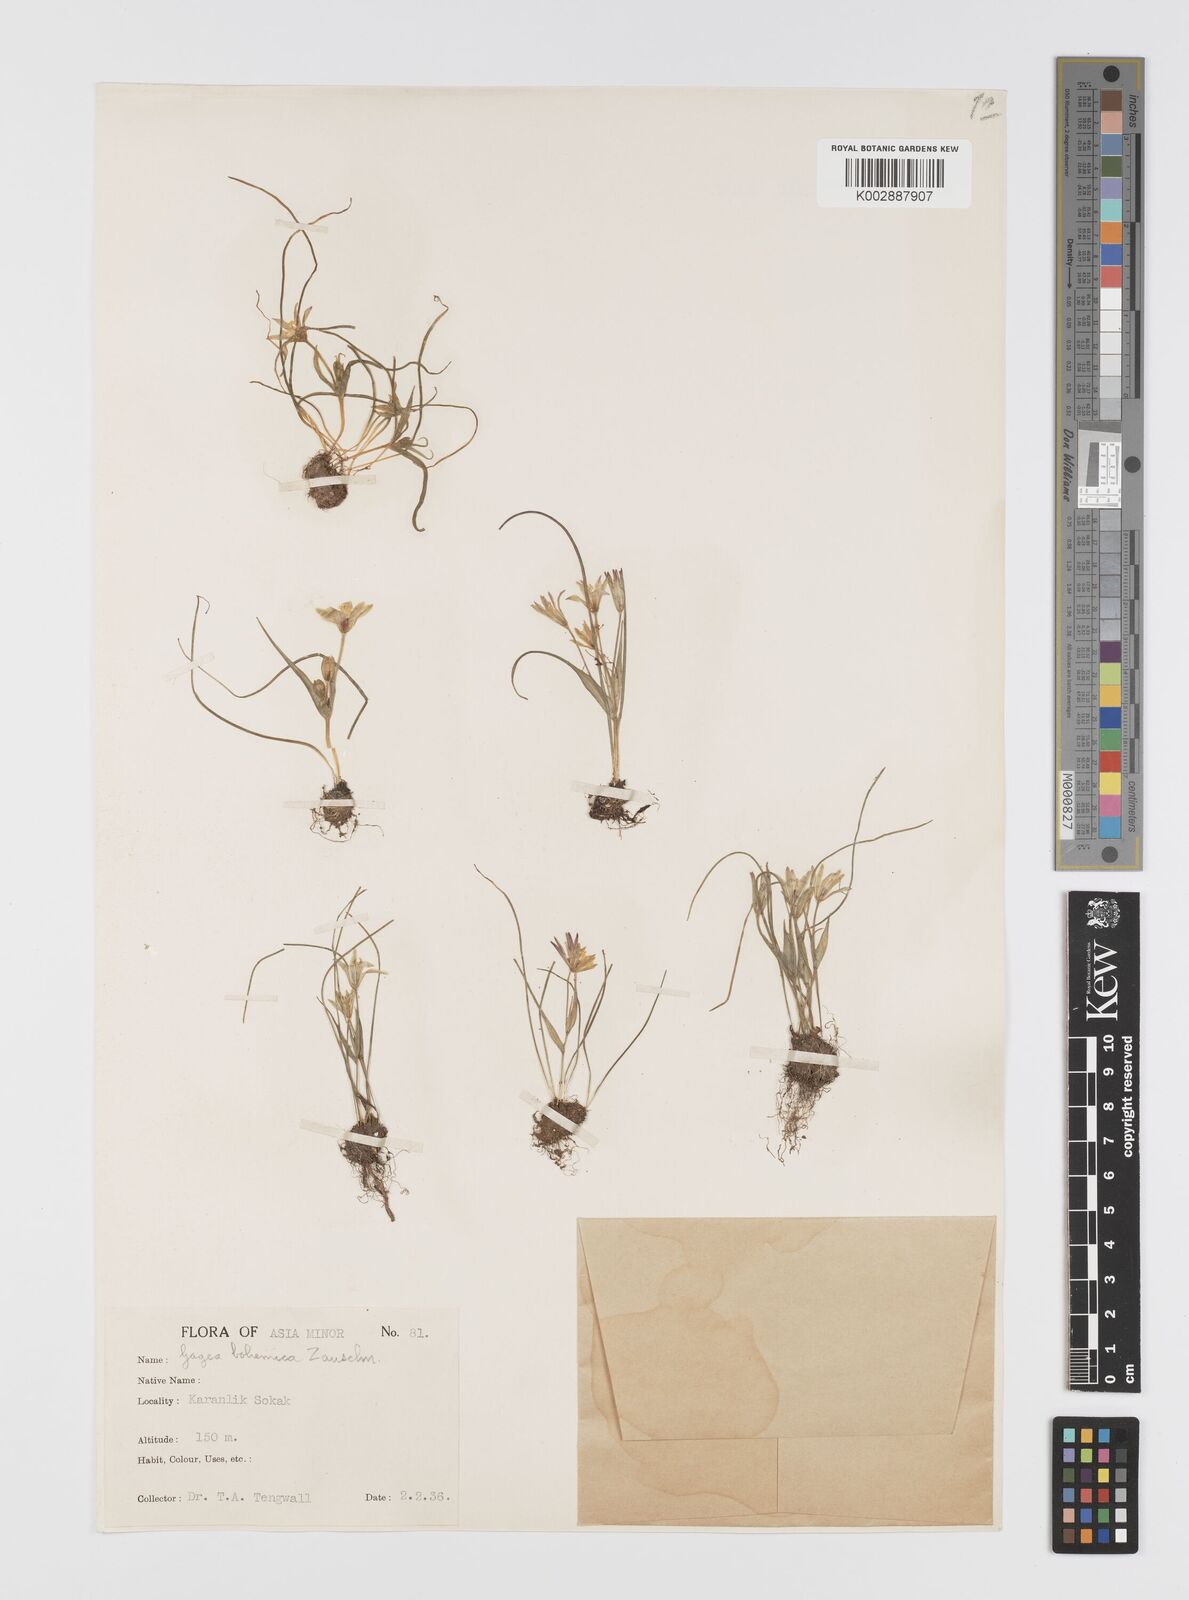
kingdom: Plantae
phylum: Tracheophyta
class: Liliopsida
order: Liliales
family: Liliaceae
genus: Gagea
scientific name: Gagea peduncularis
